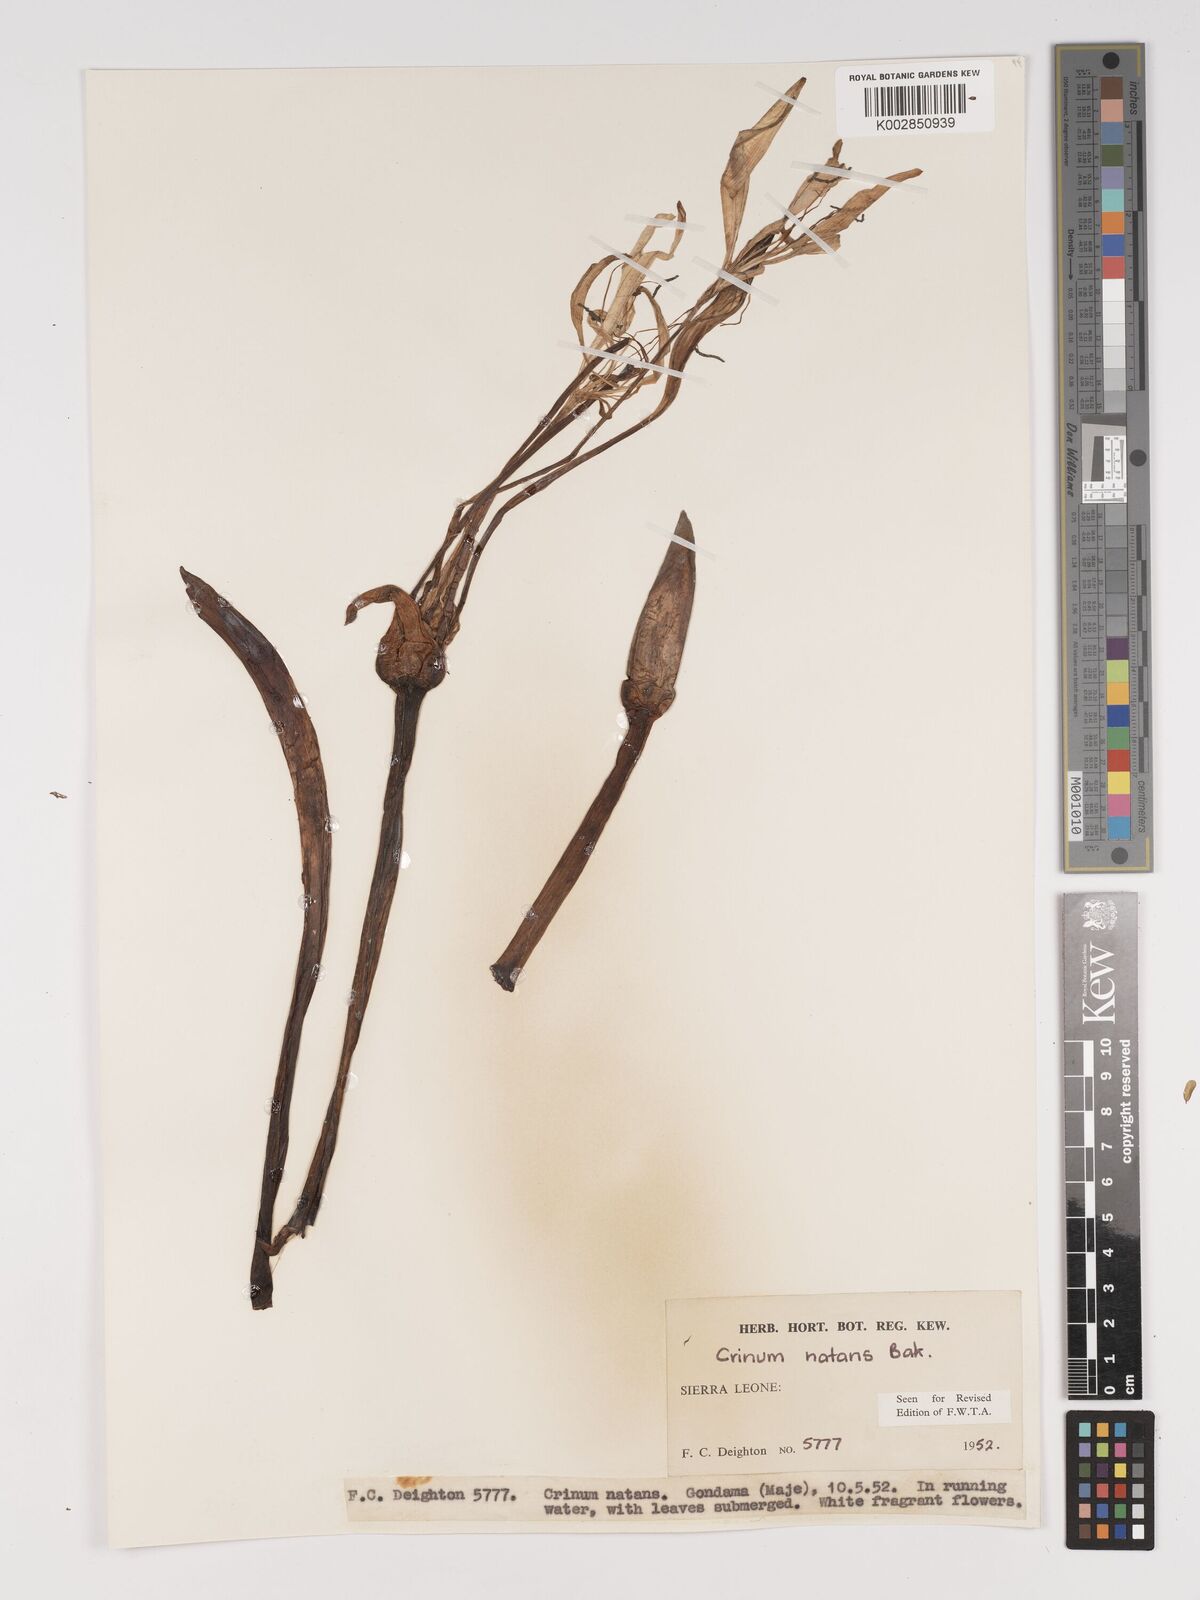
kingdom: Plantae
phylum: Tracheophyta
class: Liliopsida
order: Asparagales
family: Amaryllidaceae
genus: Crinum
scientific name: Crinum moorei
